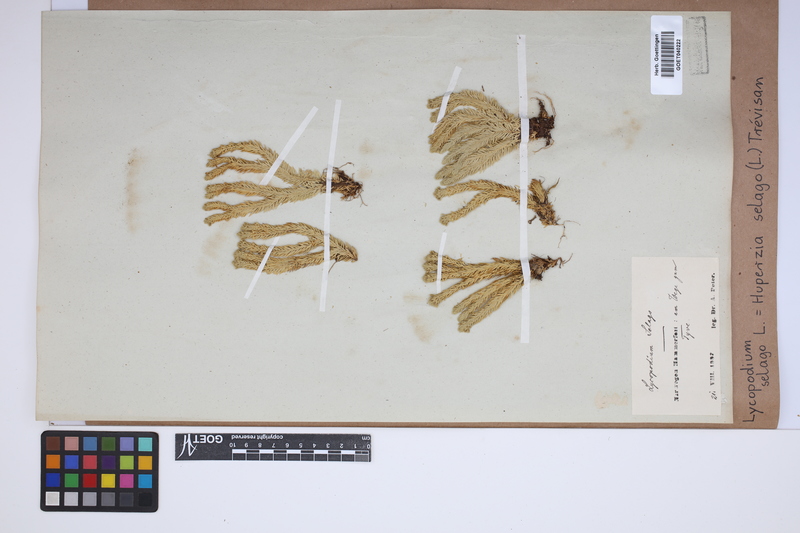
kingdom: Plantae
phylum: Tracheophyta
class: Lycopodiopsida
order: Lycopodiales
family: Lycopodiaceae
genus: Huperzia
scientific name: Huperzia selago
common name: Northern firmoss
